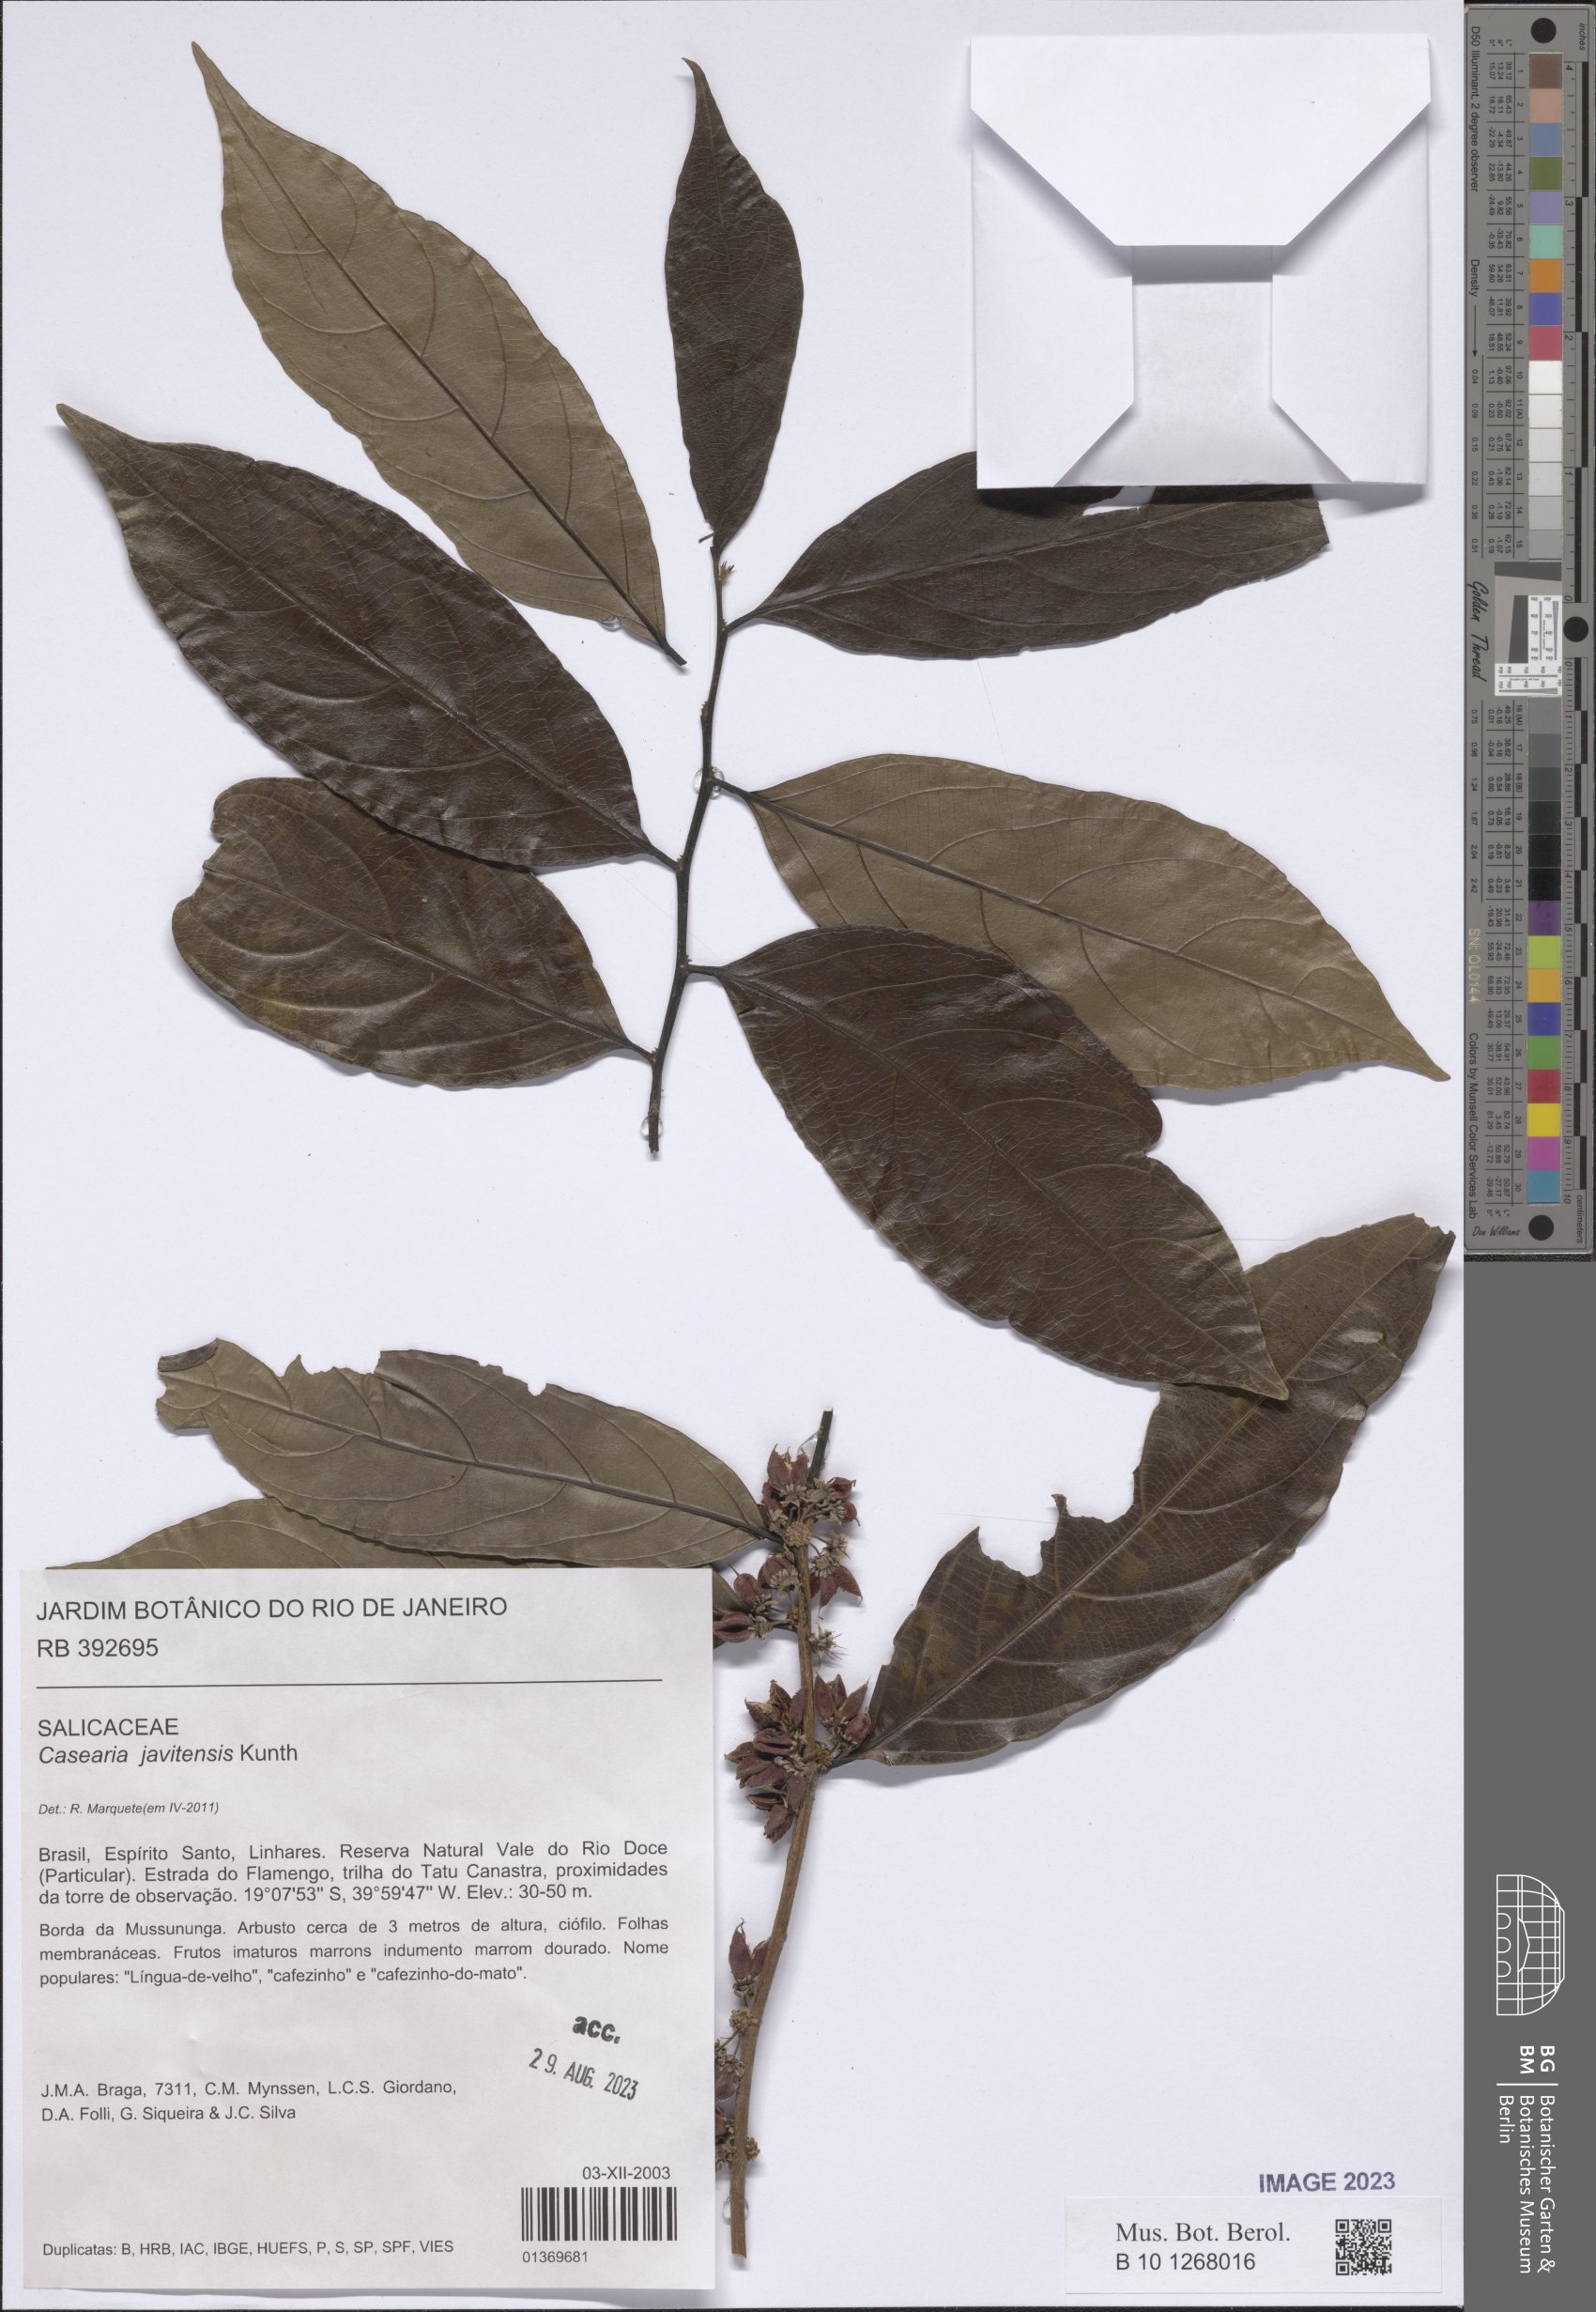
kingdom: Plantae
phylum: Tracheophyta
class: Magnoliopsida
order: Malpighiales
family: Salicaceae
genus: Piparea
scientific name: Piparea multiflora
